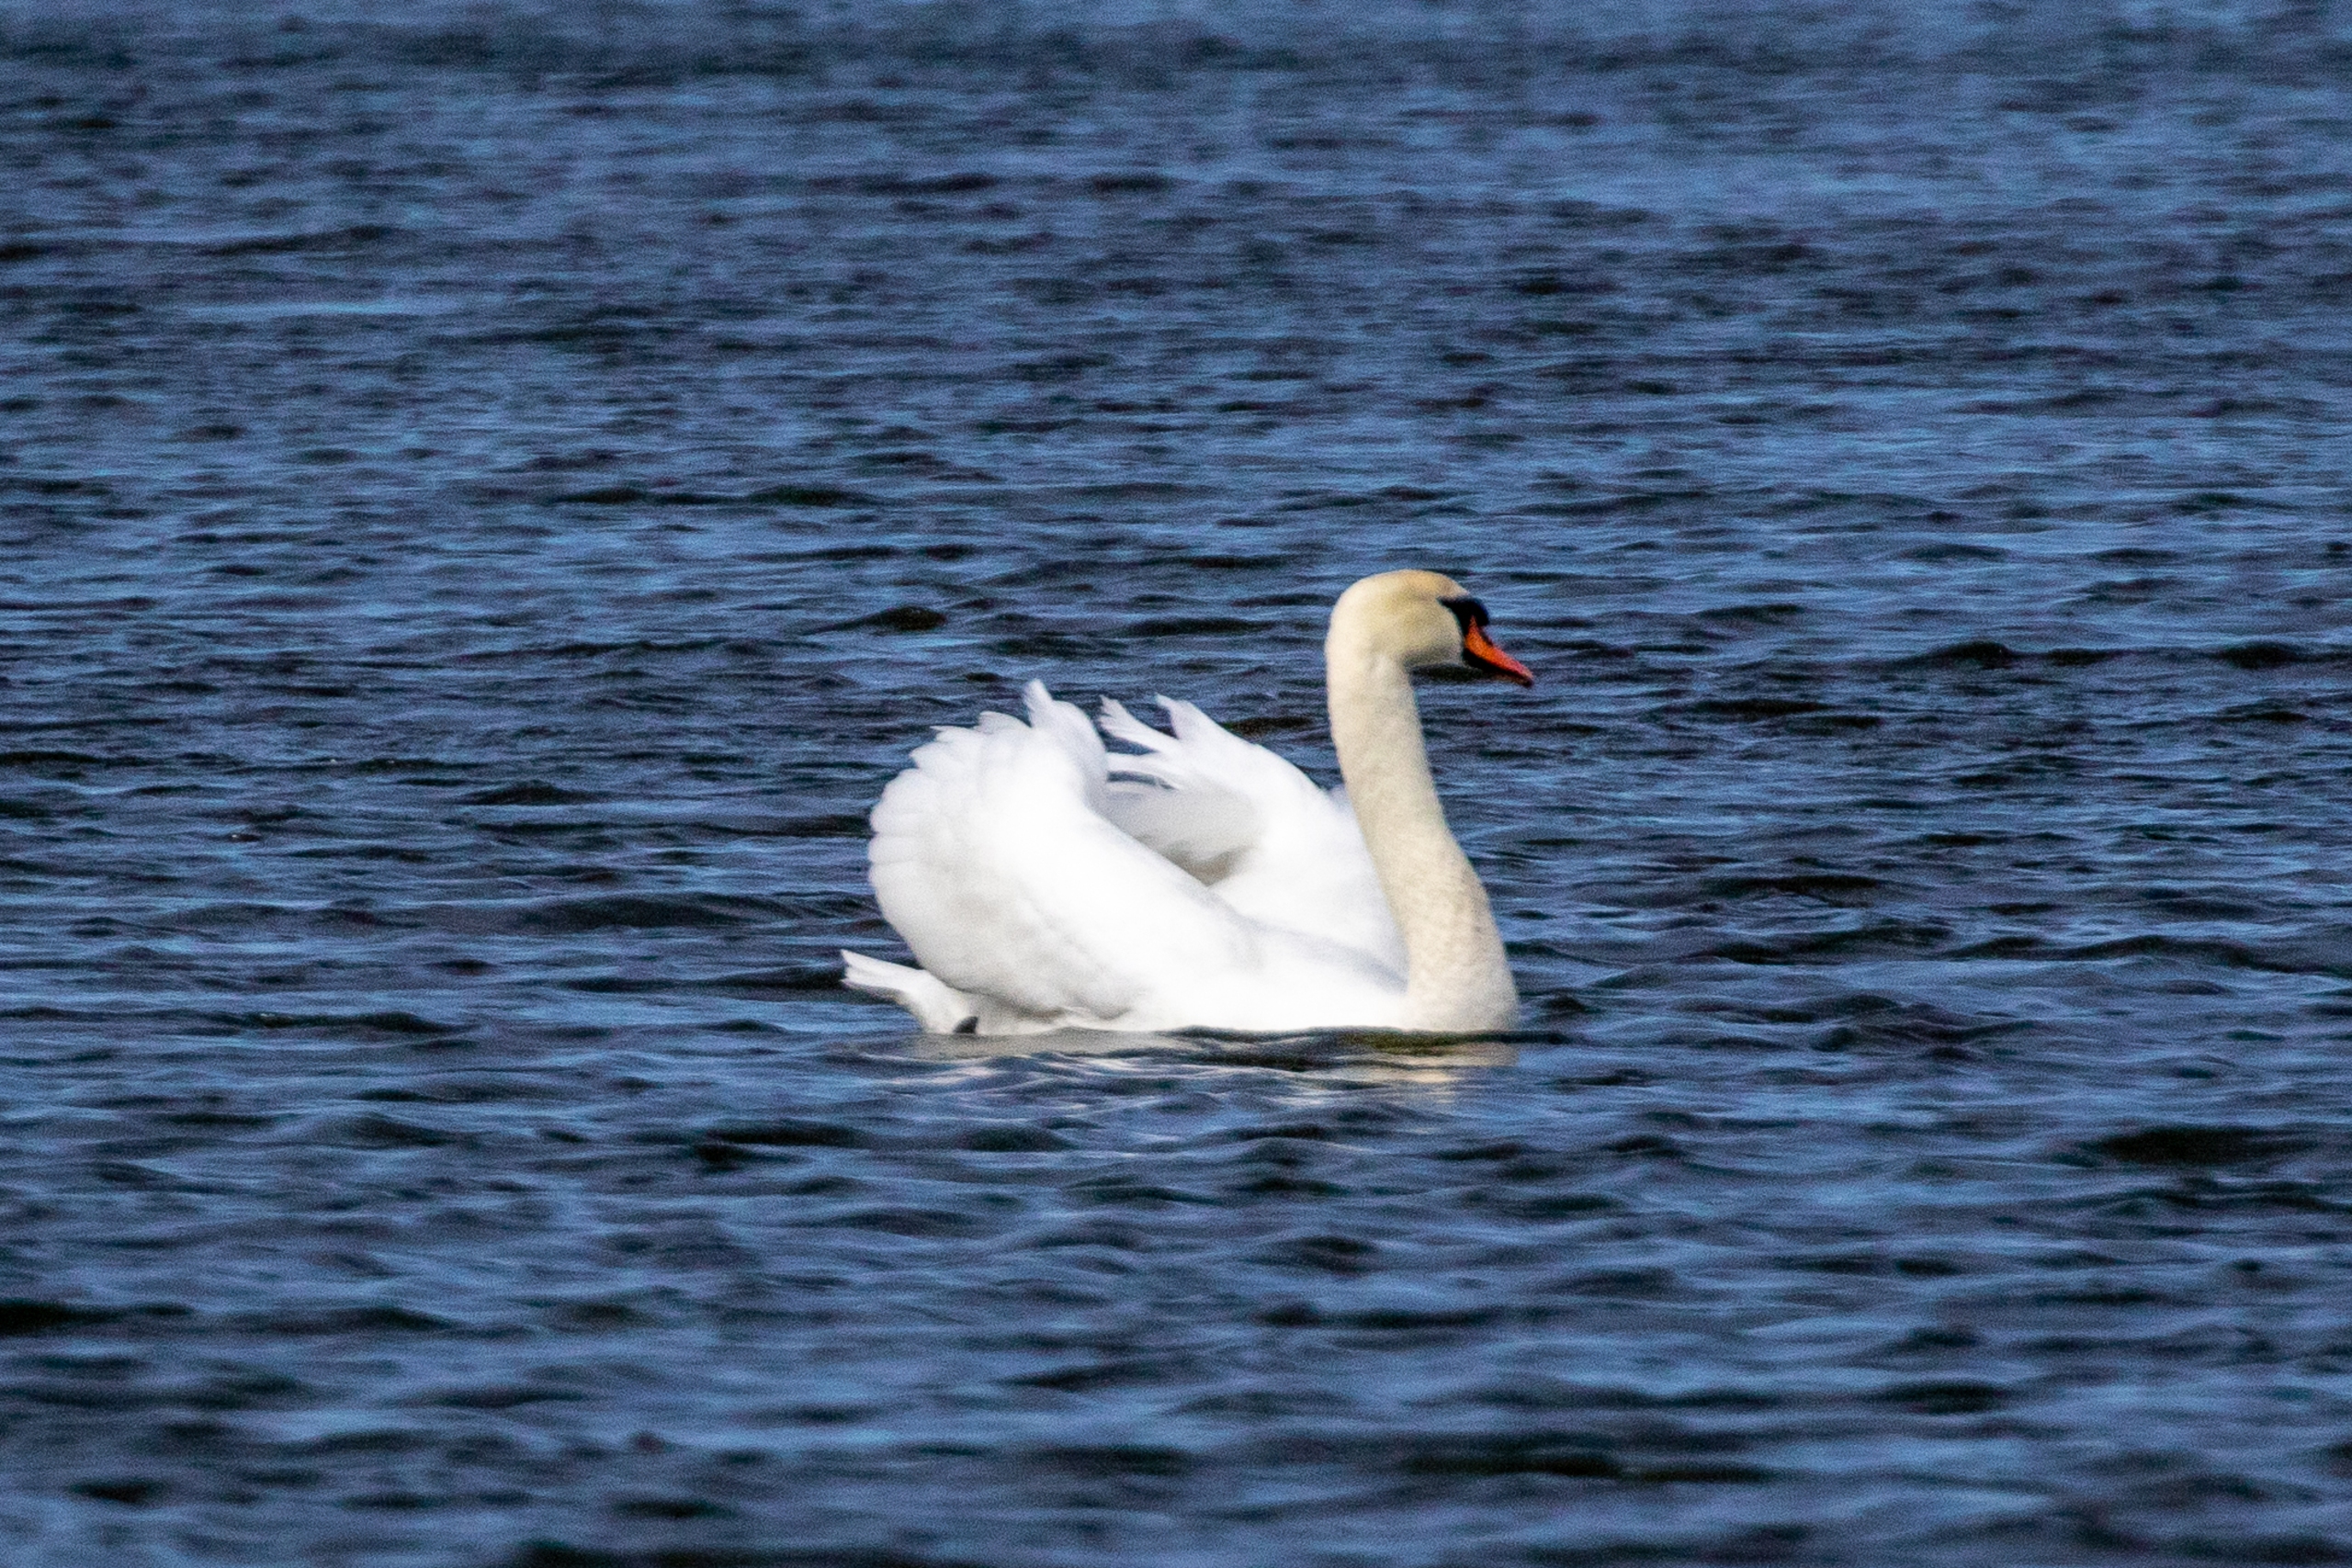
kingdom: Animalia
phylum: Chordata
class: Aves
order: Anseriformes
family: Anatidae
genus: Cygnus
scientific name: Cygnus olor
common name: Knopsvane
